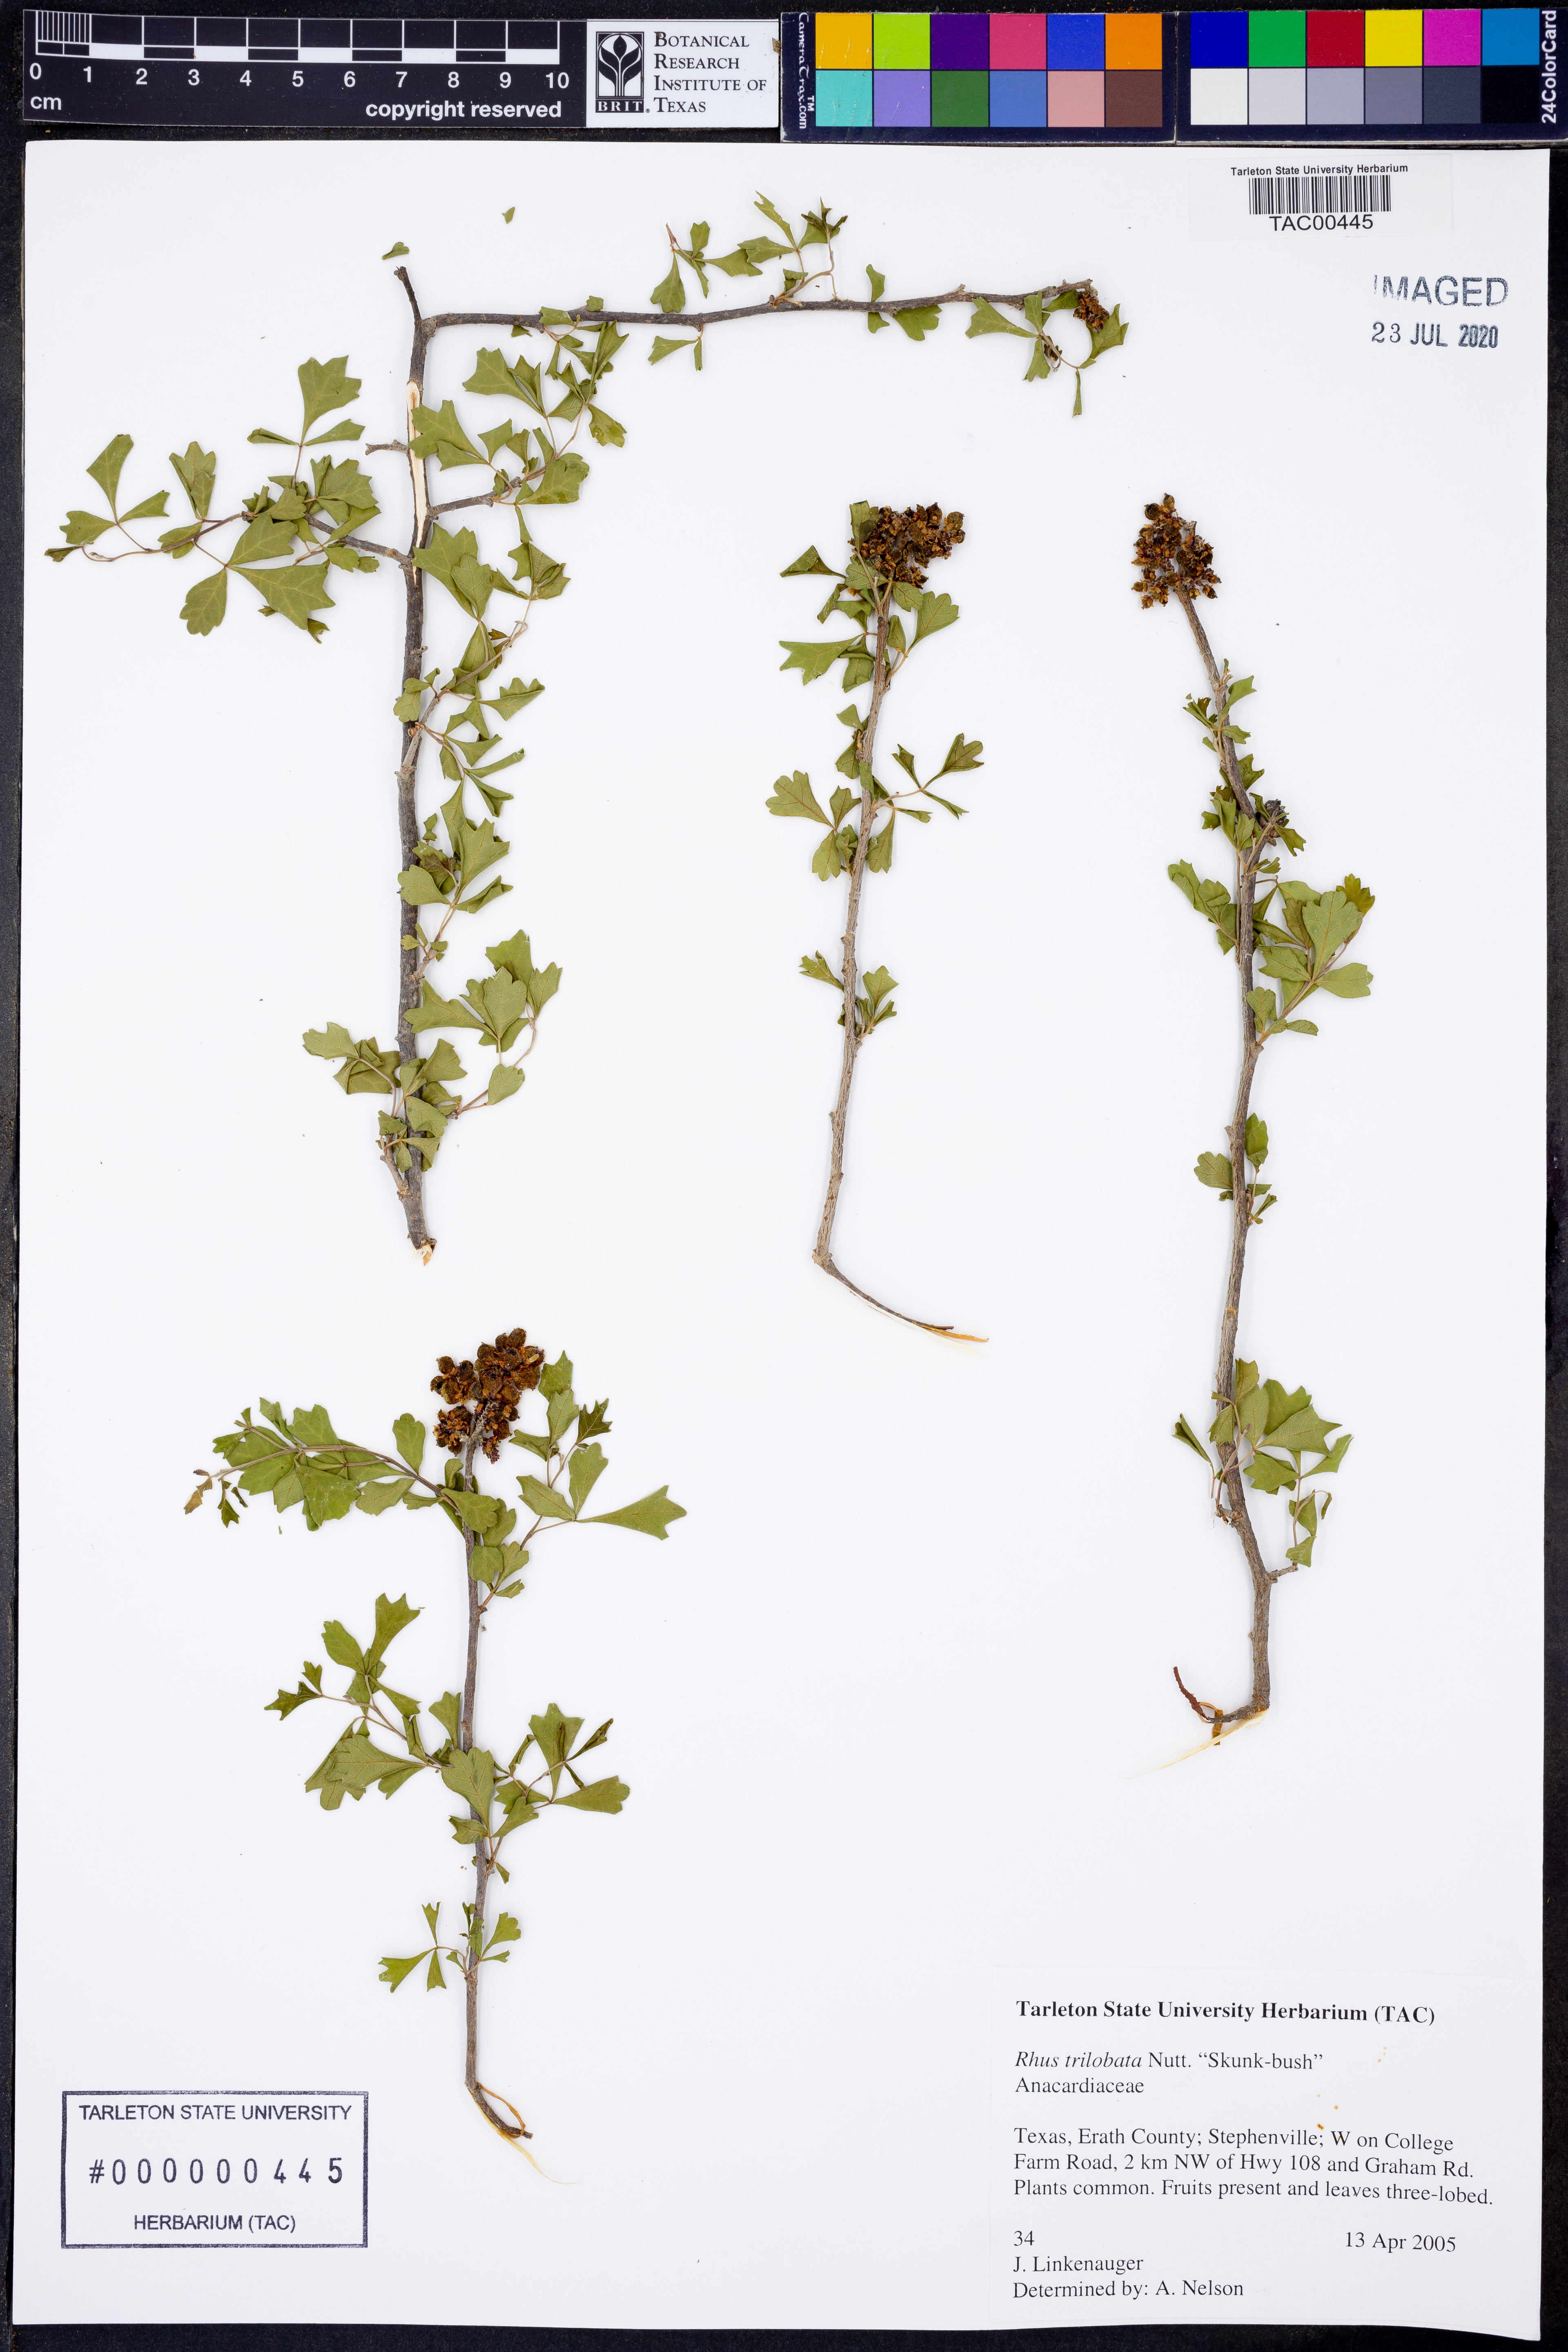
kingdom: Plantae
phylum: Tracheophyta
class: Magnoliopsida
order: Sapindales
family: Anacardiaceae
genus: Rhus
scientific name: Rhus trilobata
